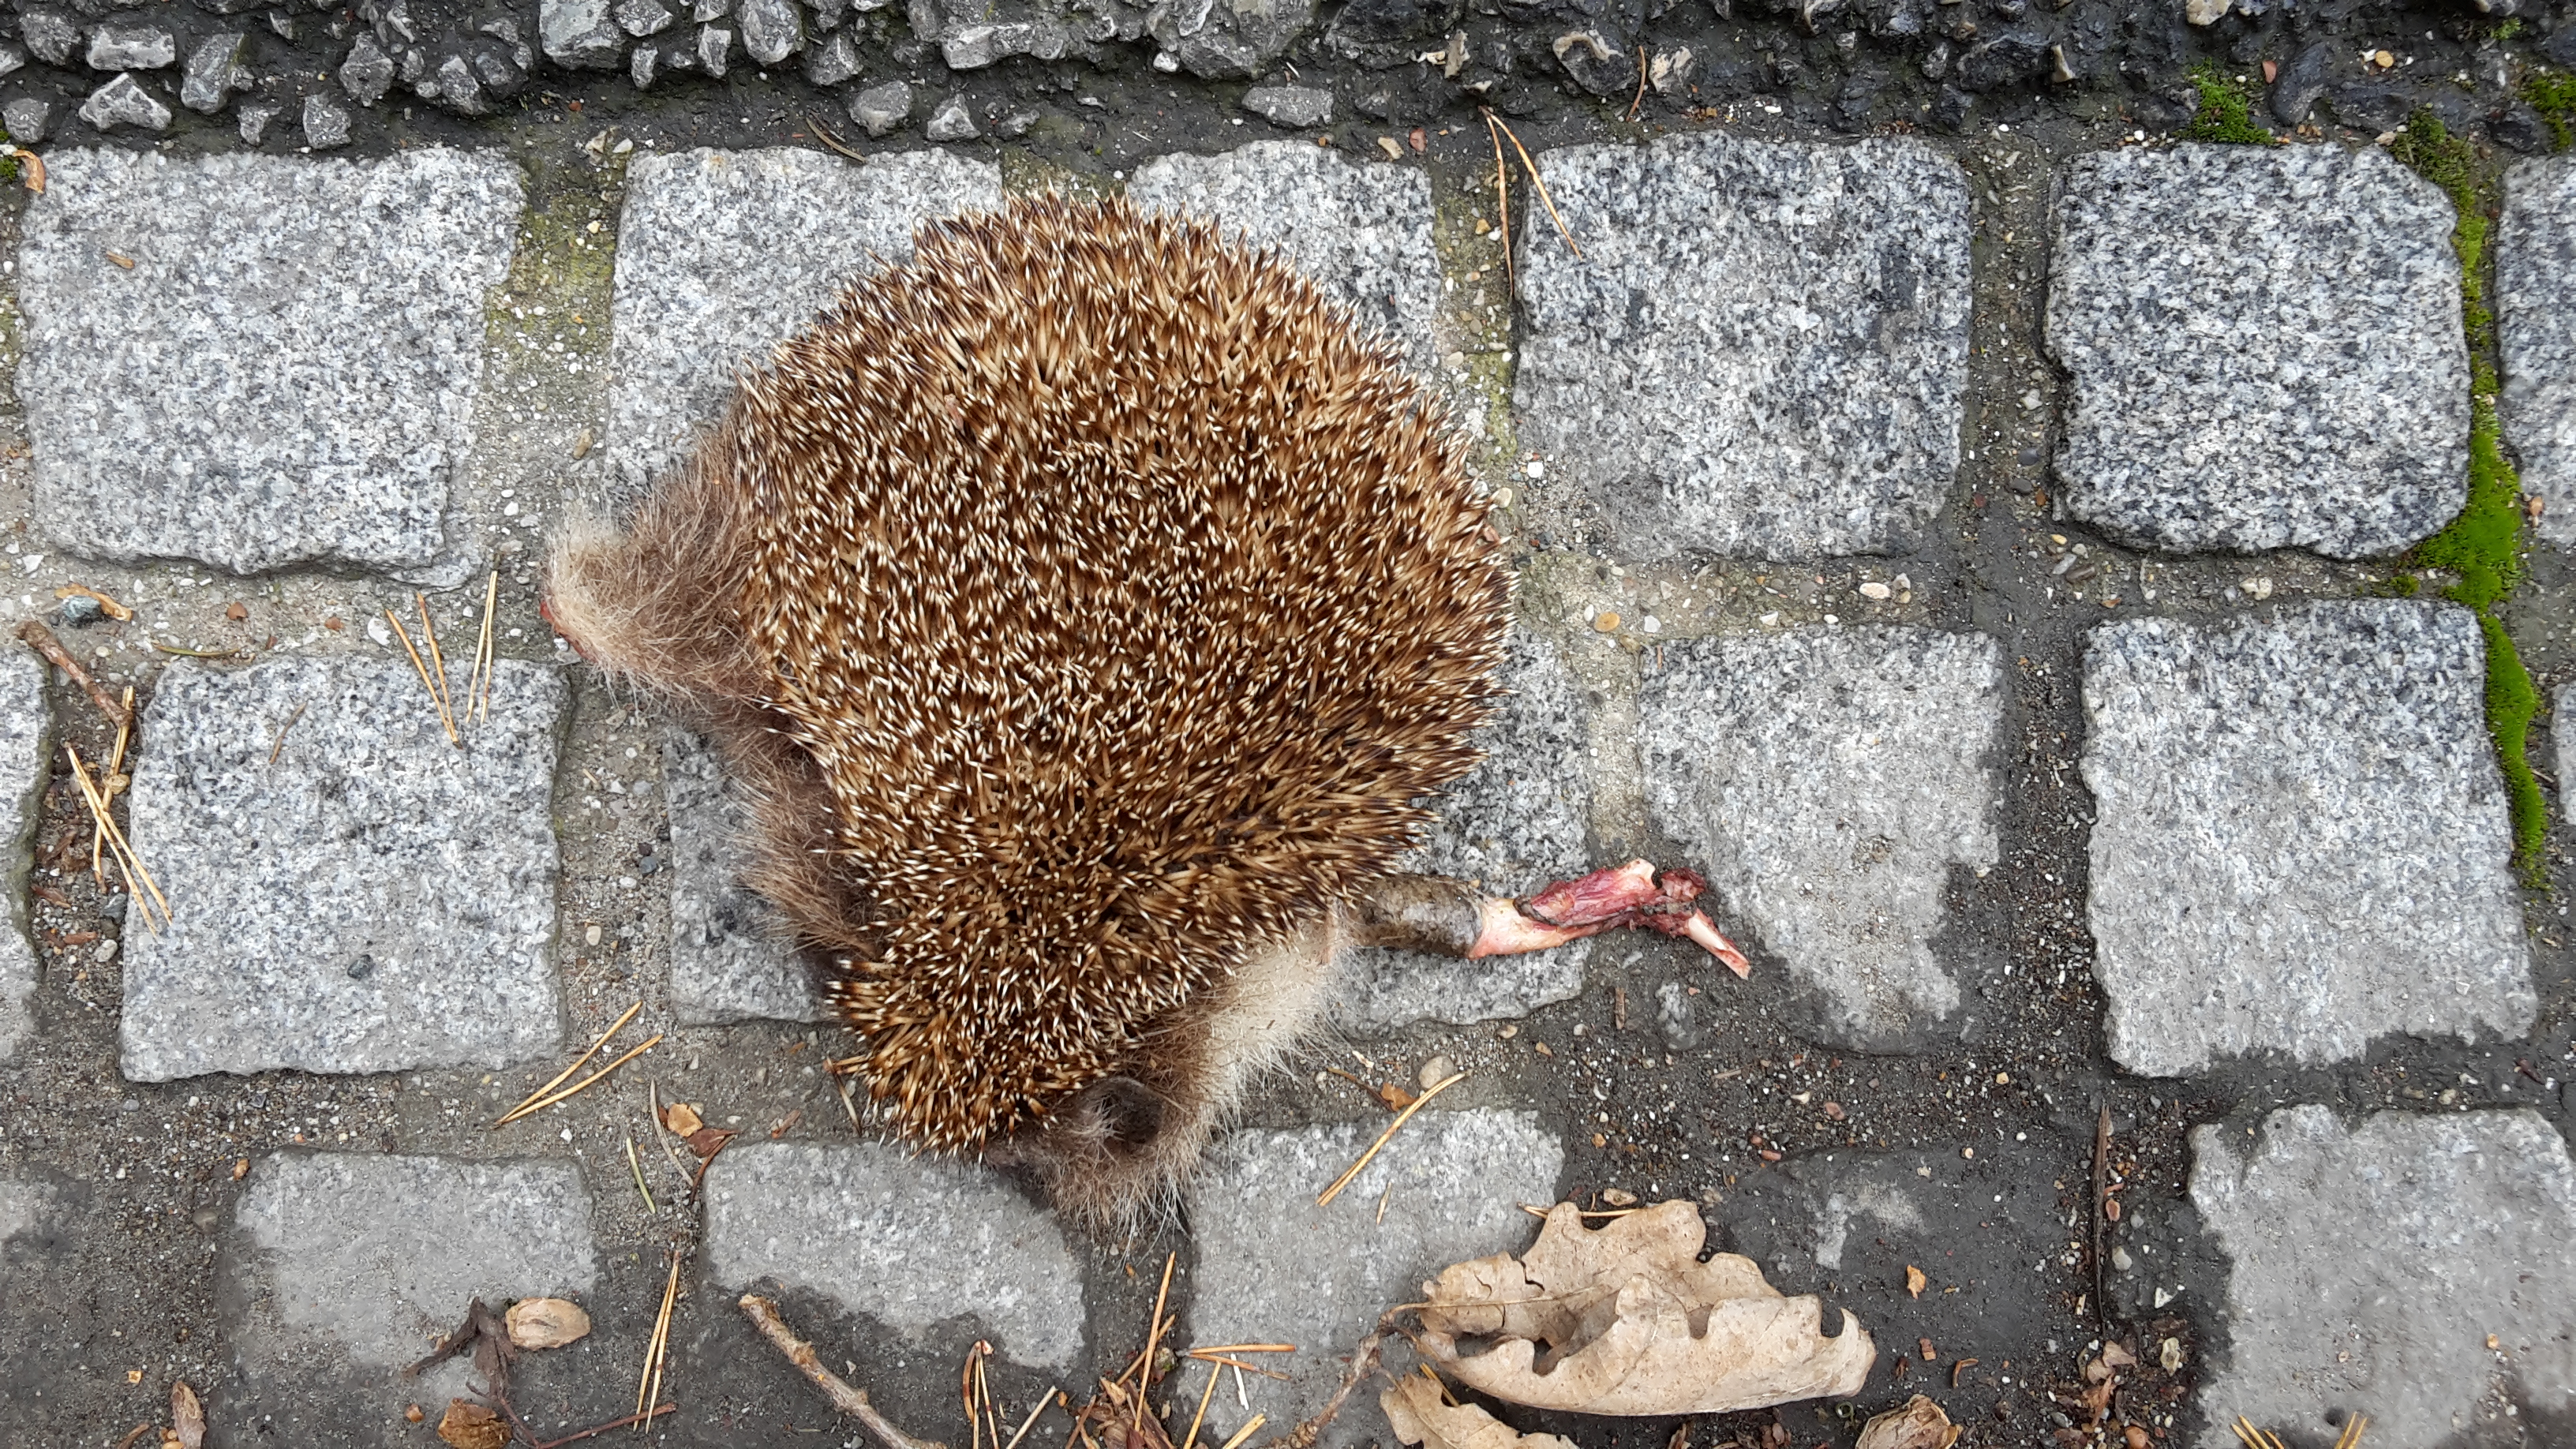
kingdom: Animalia
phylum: Chordata
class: Mammalia
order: Erinaceomorpha
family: Erinaceidae
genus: Erinaceus
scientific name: Erinaceus
